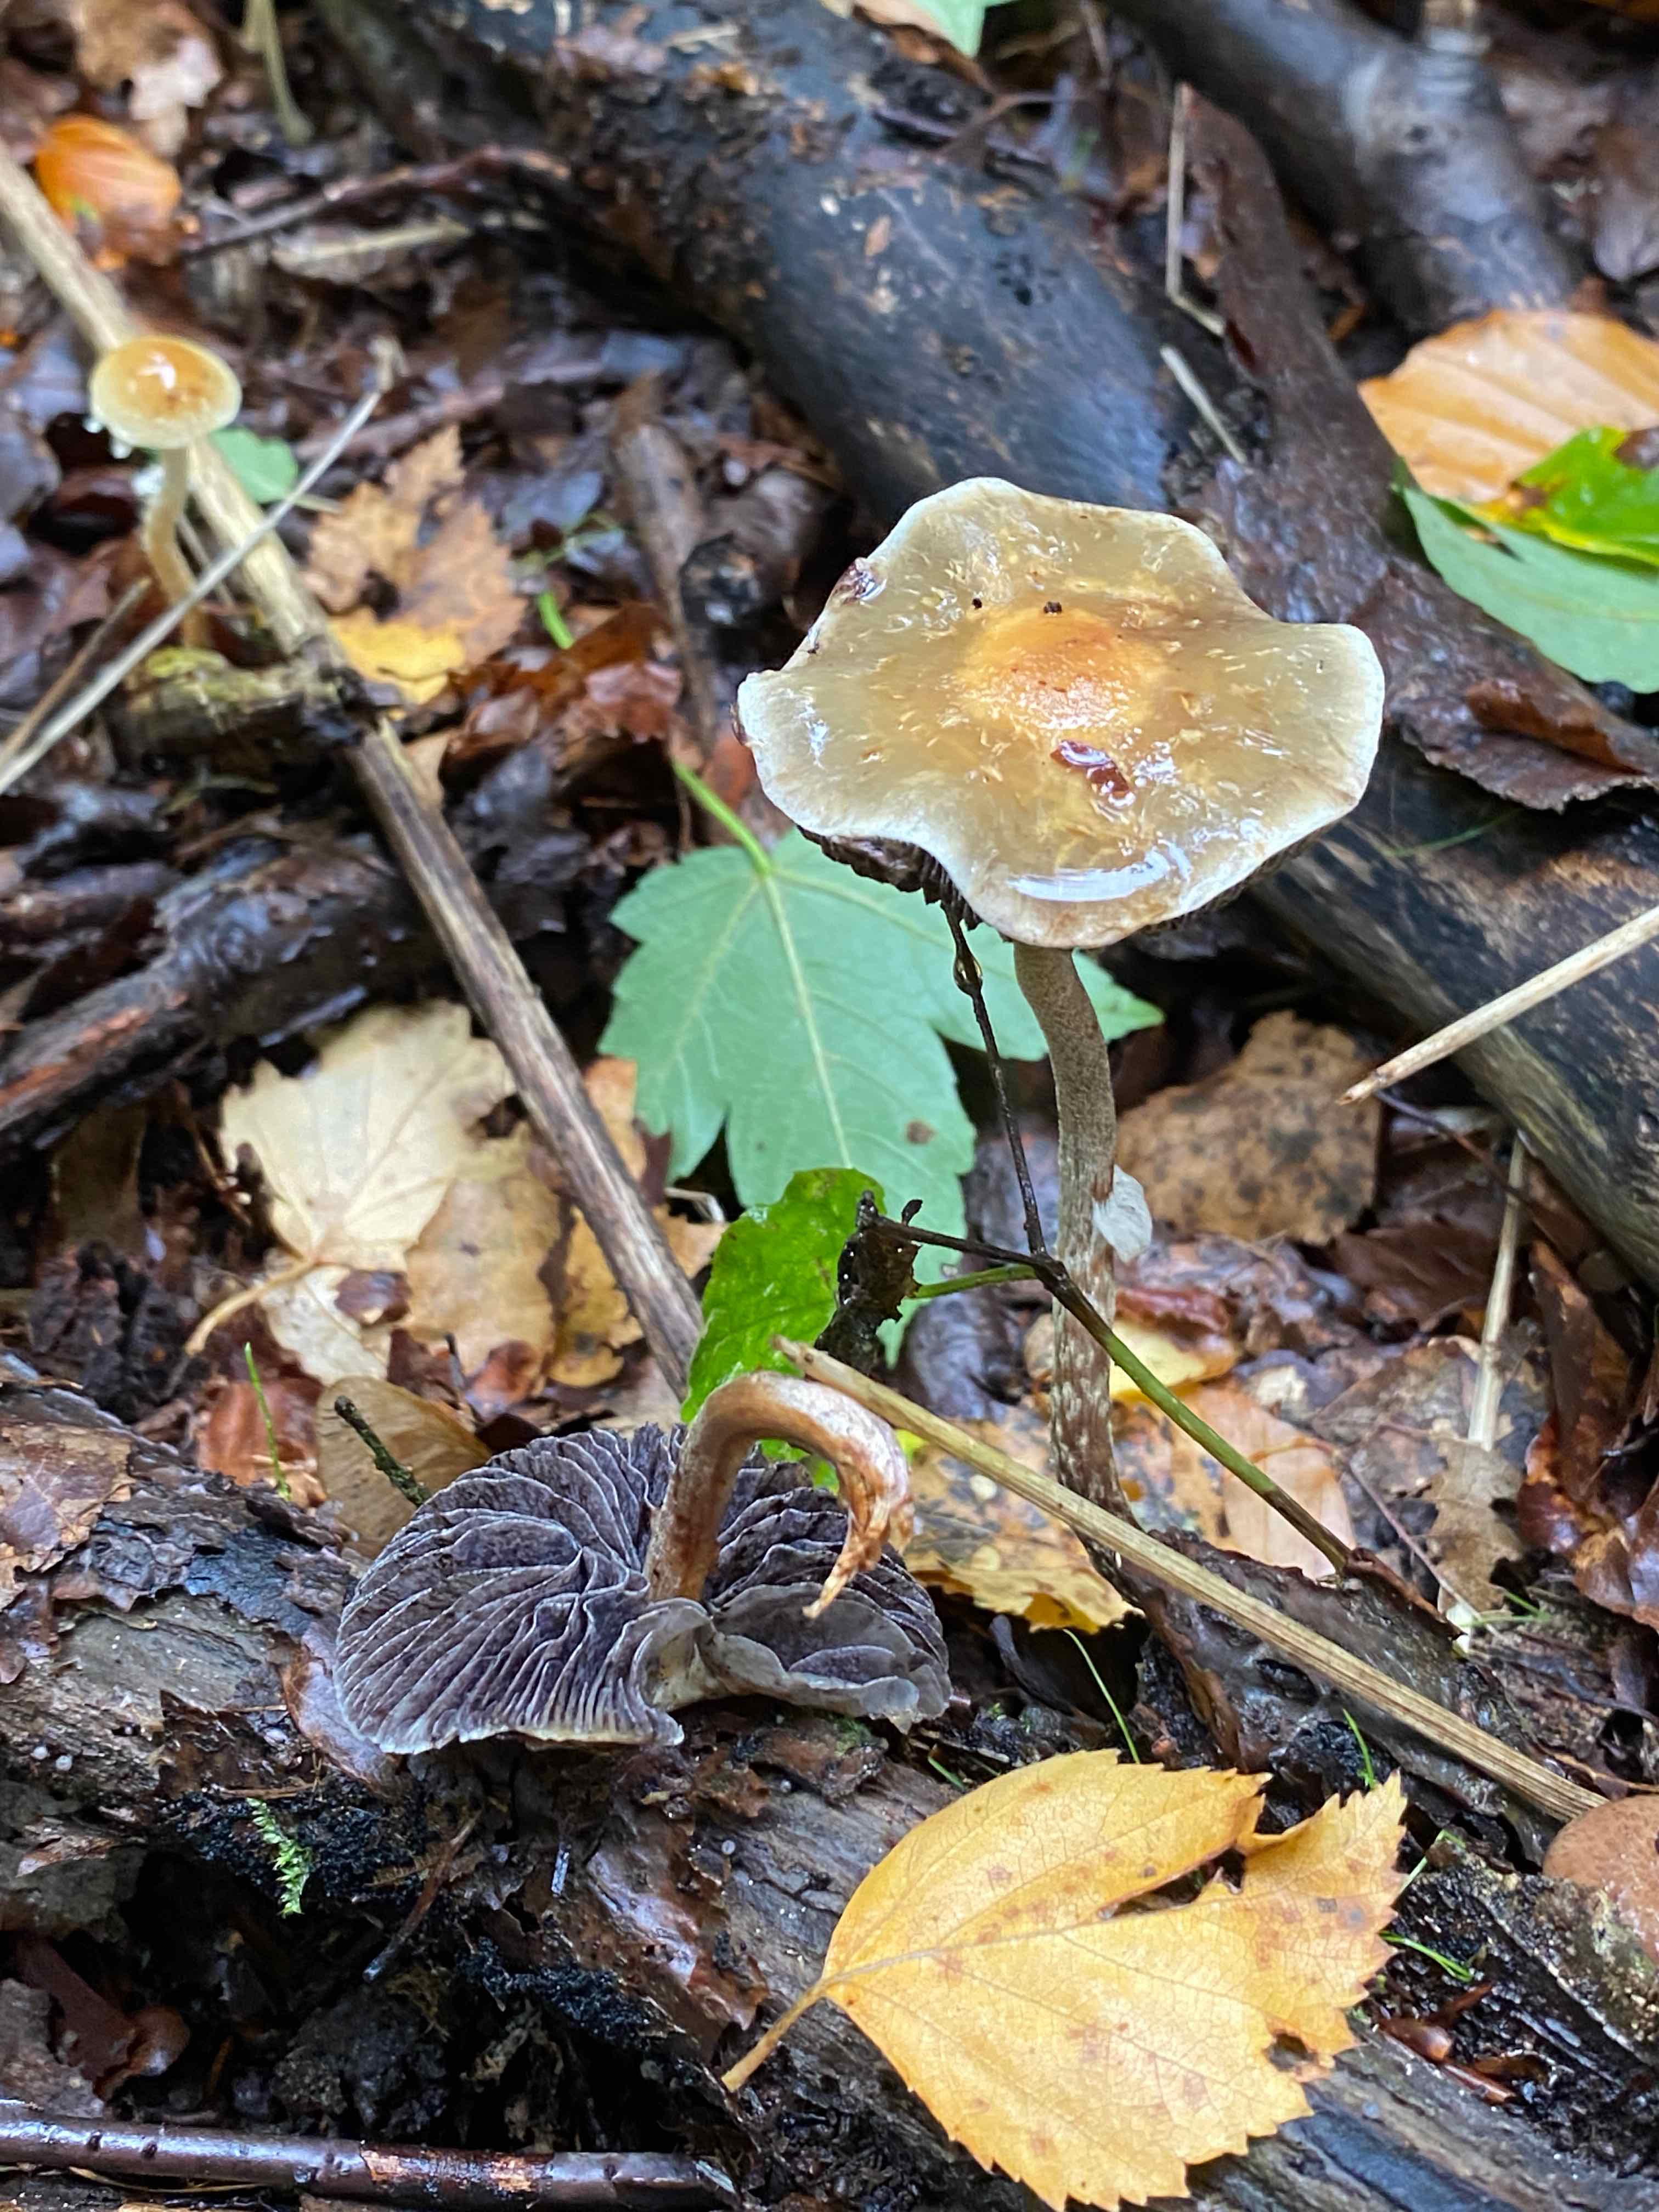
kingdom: Fungi
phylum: Basidiomycota
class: Agaricomycetes
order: Agaricales
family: Strophariaceae
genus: Leratiomyces
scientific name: Leratiomyces squamosus
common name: skællet bredblad
